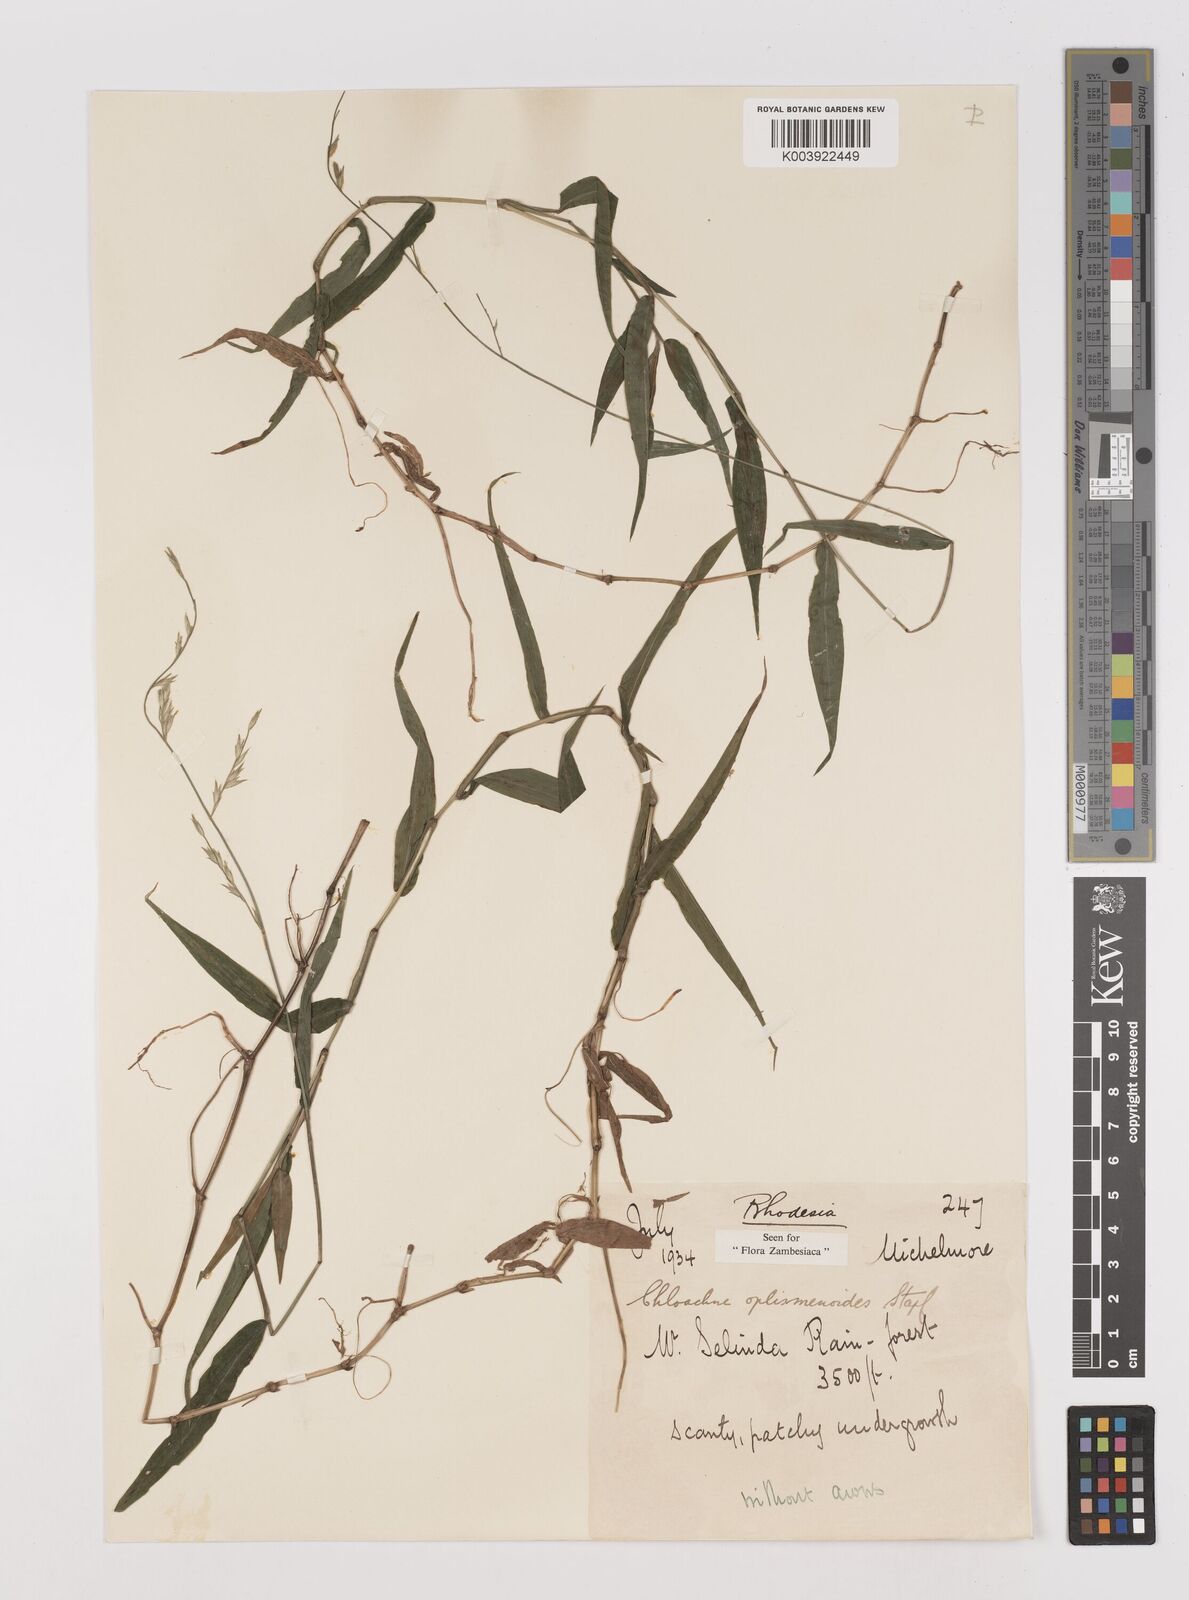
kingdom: Plantae
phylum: Tracheophyta
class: Liliopsida
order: Poales
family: Poaceae
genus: Poecilostachys
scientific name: Poecilostachys oplismenoides
